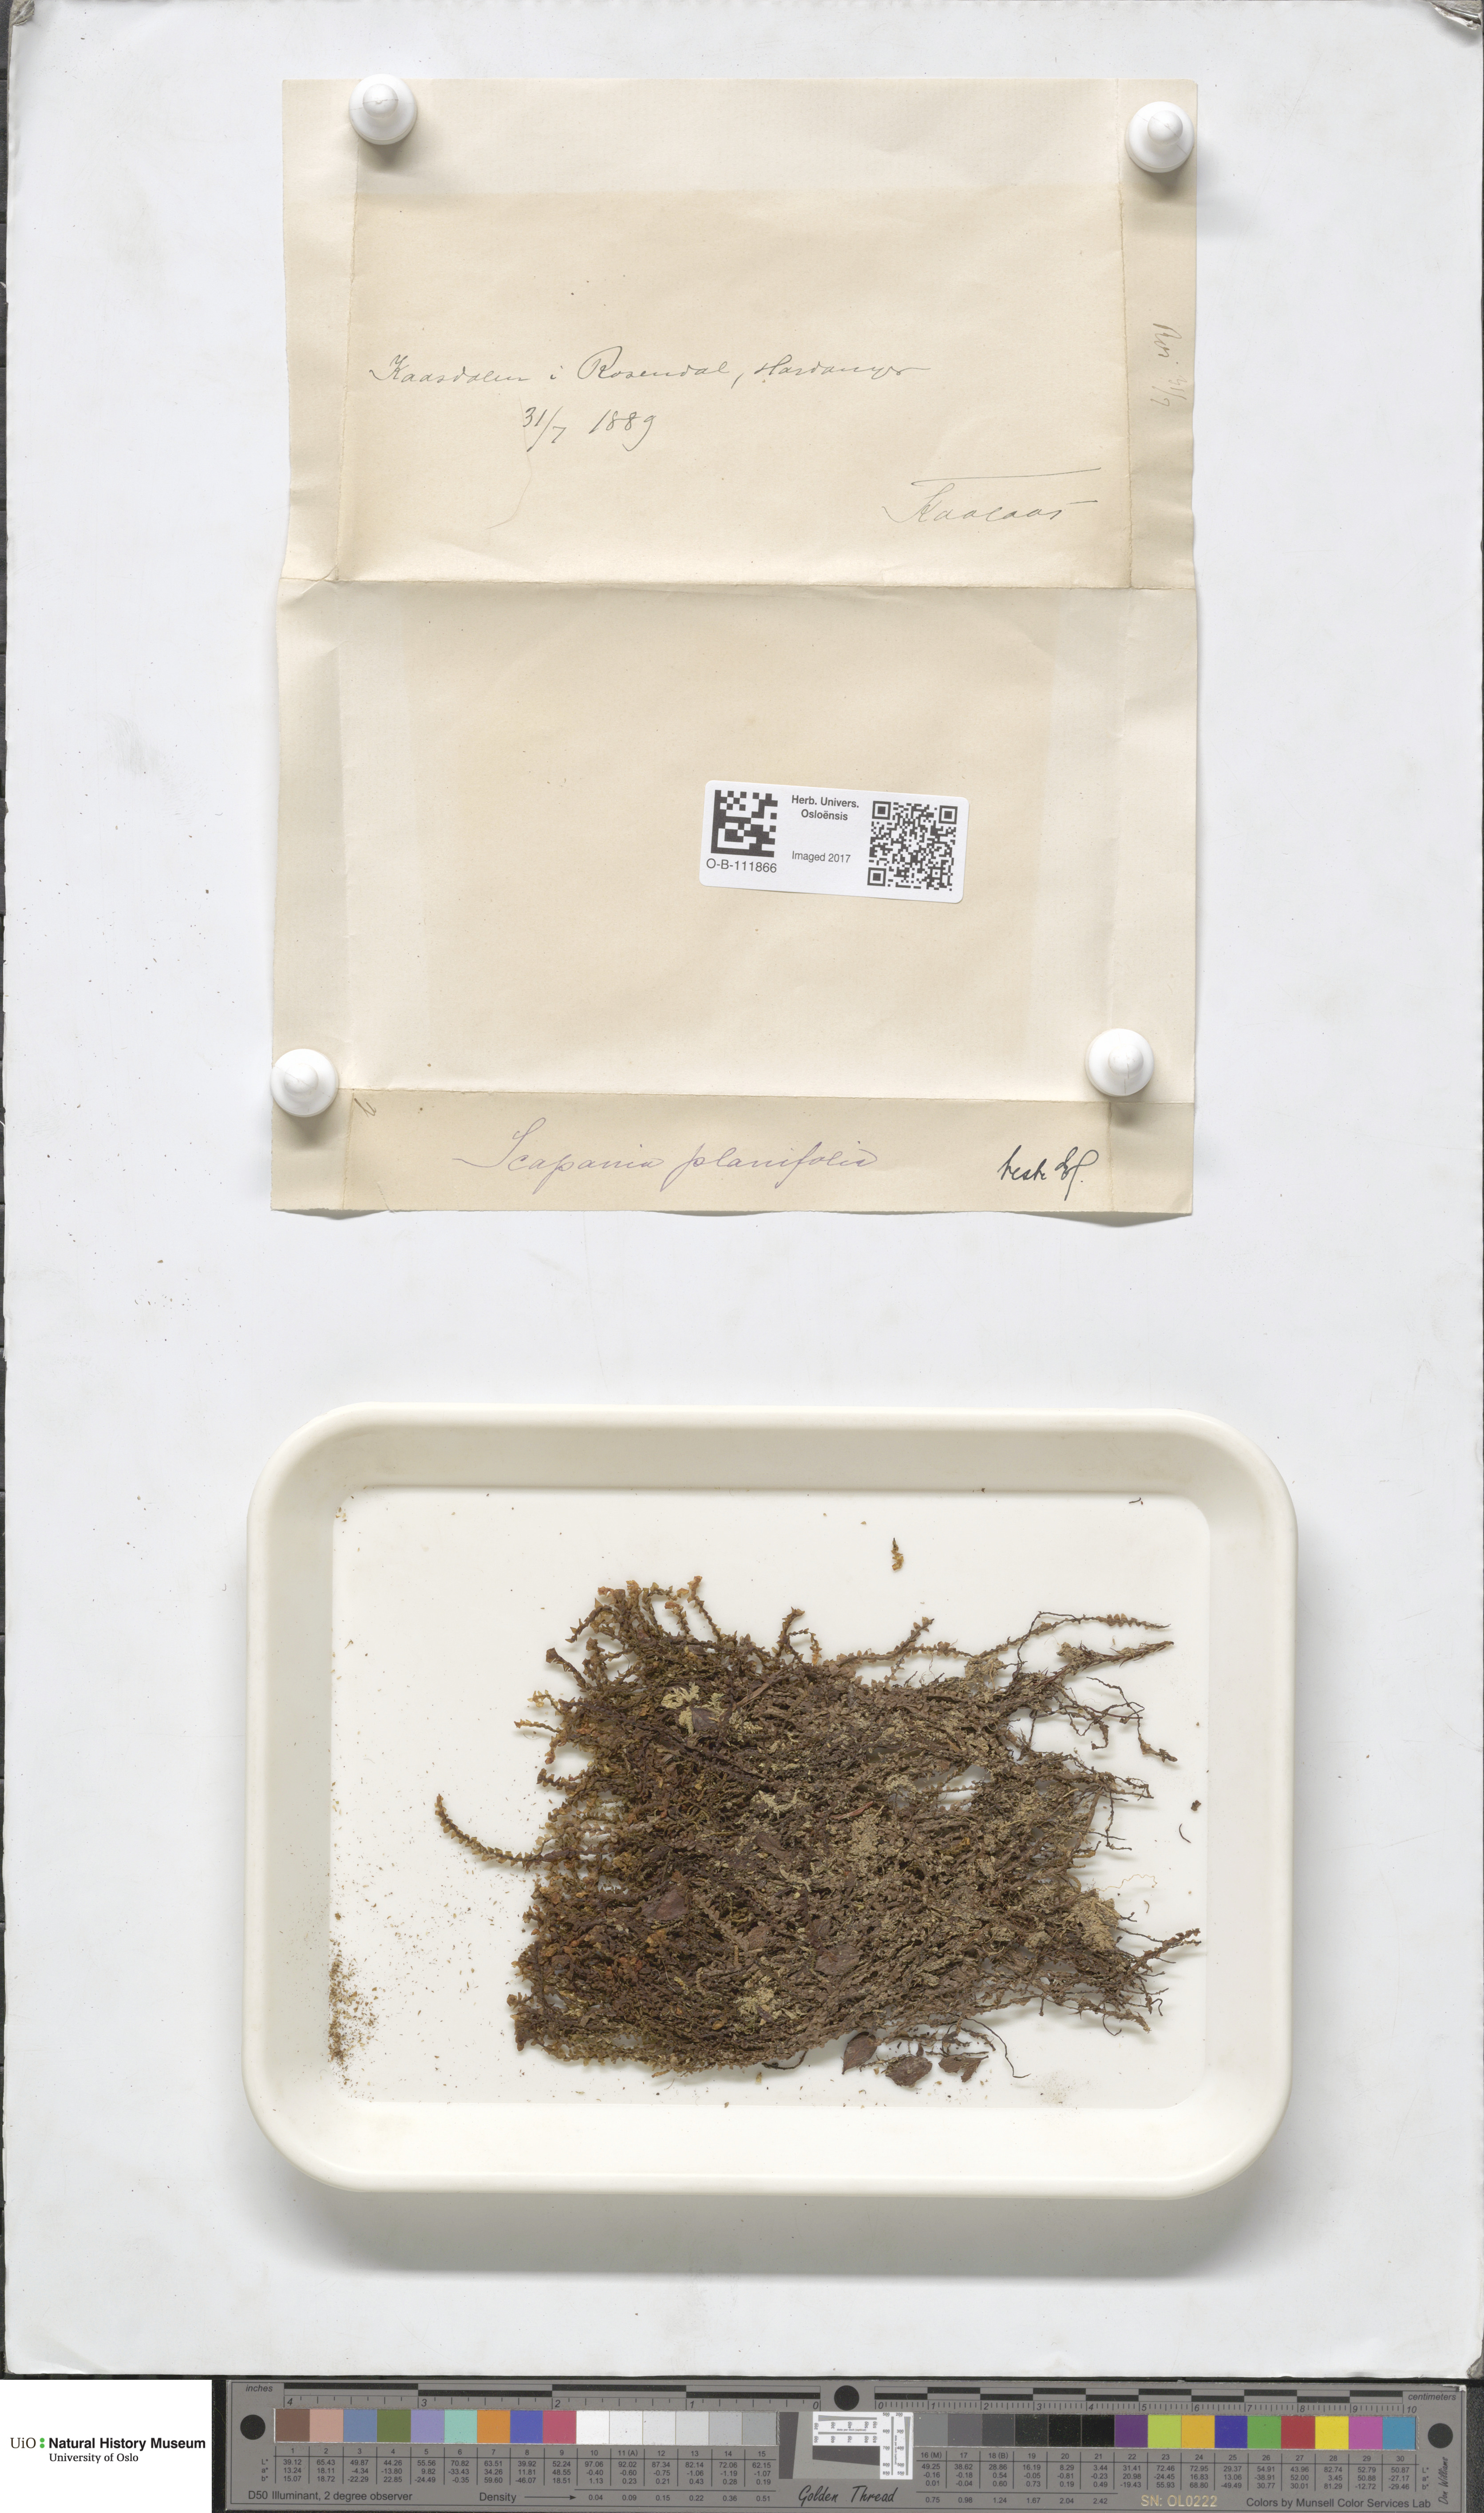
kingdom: Plantae
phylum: Marchantiophyta
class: Jungermanniopsida
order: Jungermanniales
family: Scapaniaceae
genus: Scapania
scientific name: Scapania ornithopodioides
